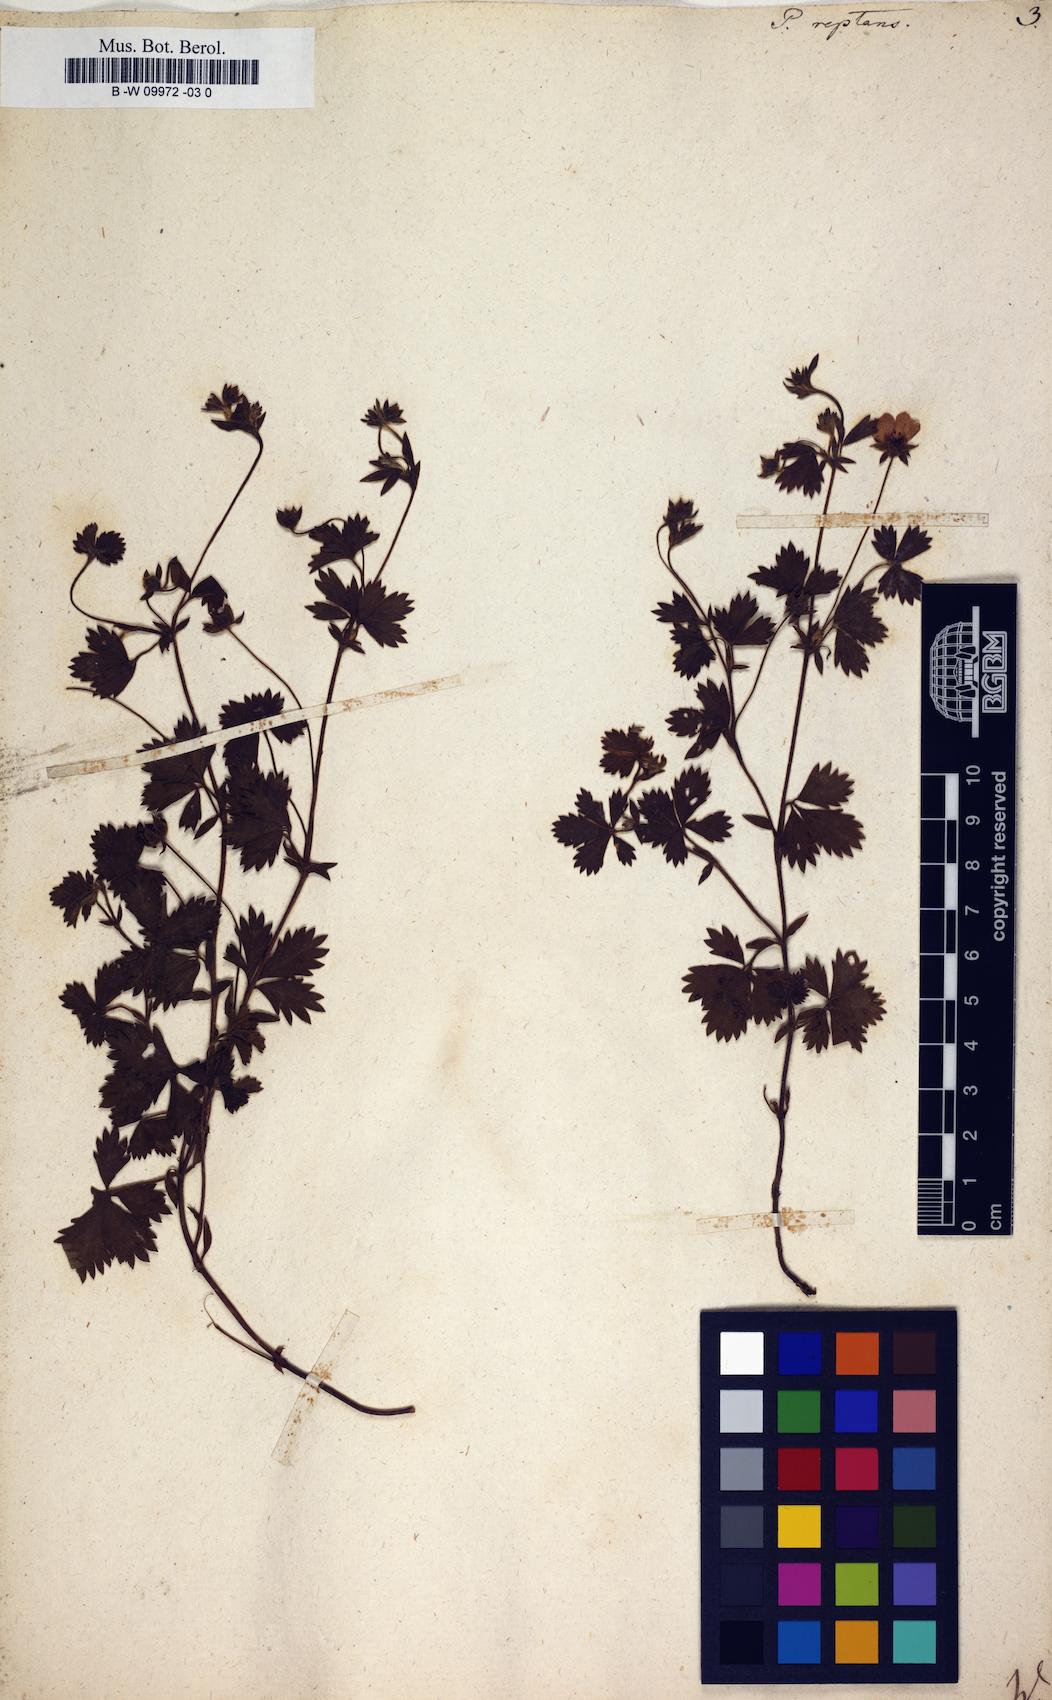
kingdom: Plantae
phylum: Tracheophyta
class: Magnoliopsida
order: Rosales
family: Rosaceae
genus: Potentilla
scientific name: Potentilla reptans
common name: Creeping cinquefoil
